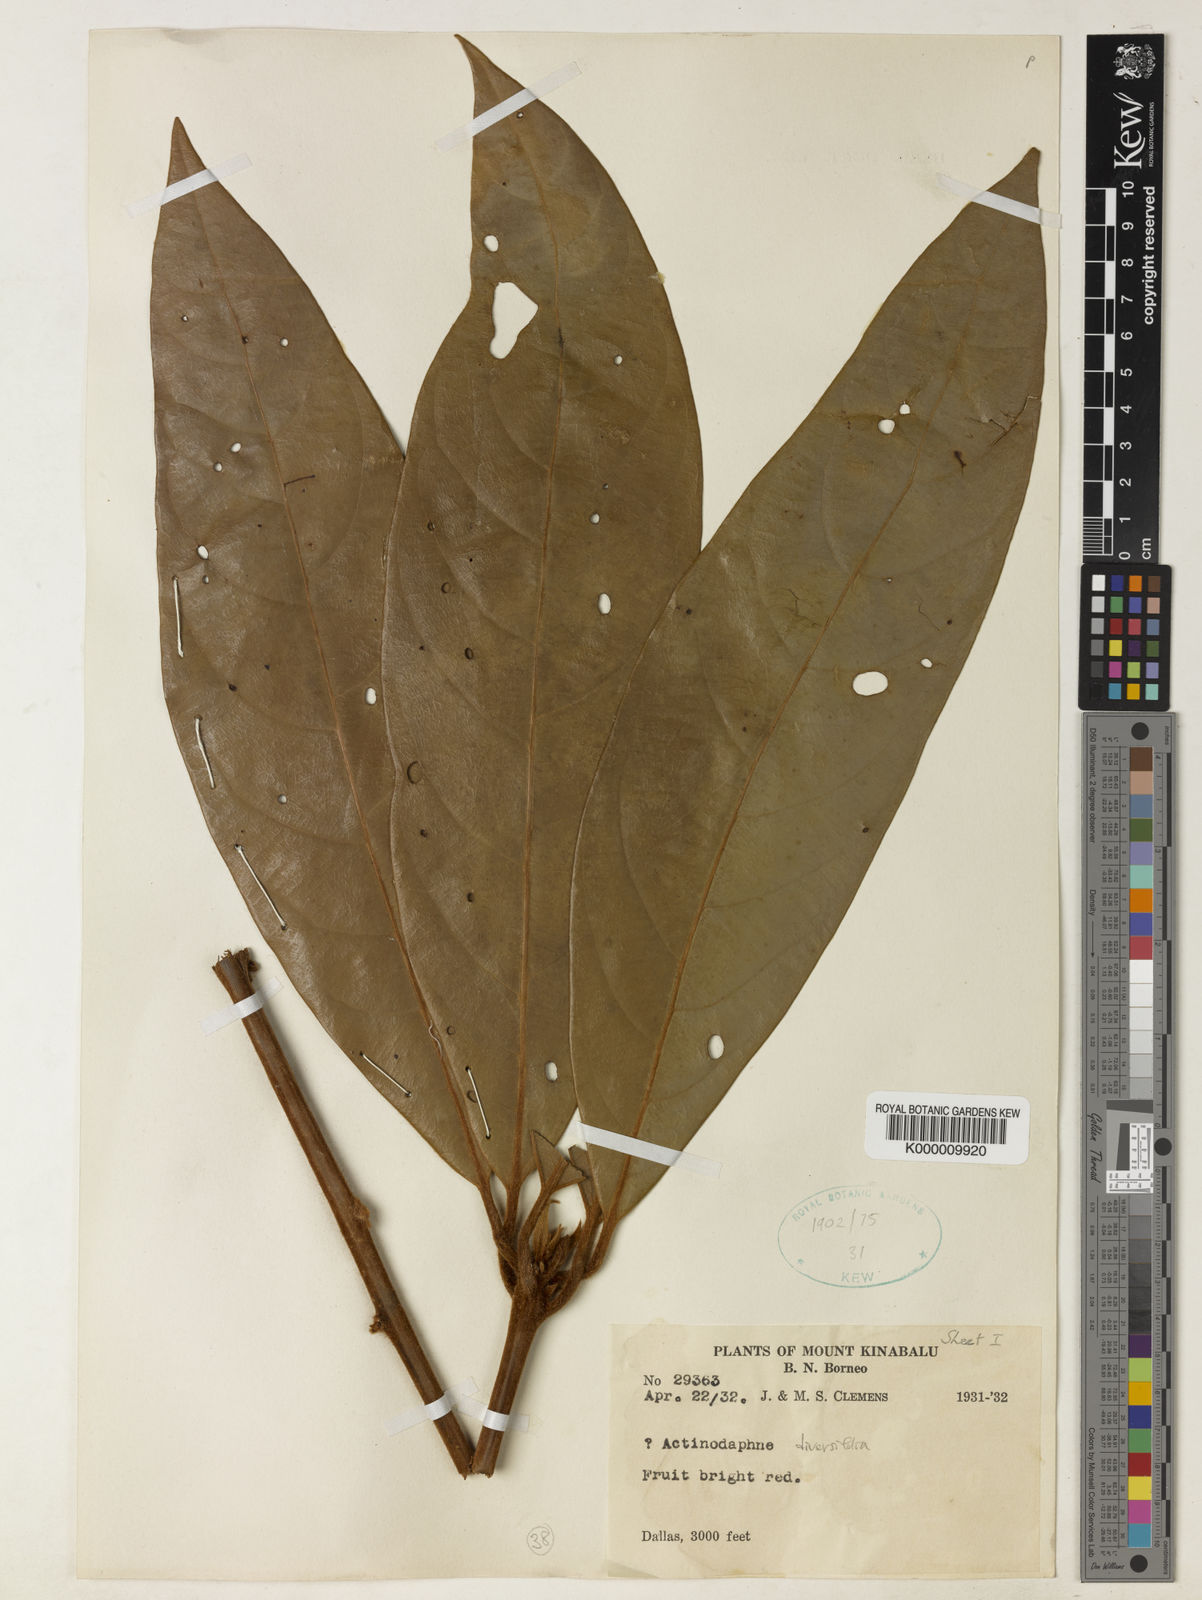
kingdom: Plantae
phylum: Tracheophyta
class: Magnoliopsida
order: Laurales
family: Lauraceae
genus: Actinodaphne
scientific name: Actinodaphne diversifolia
